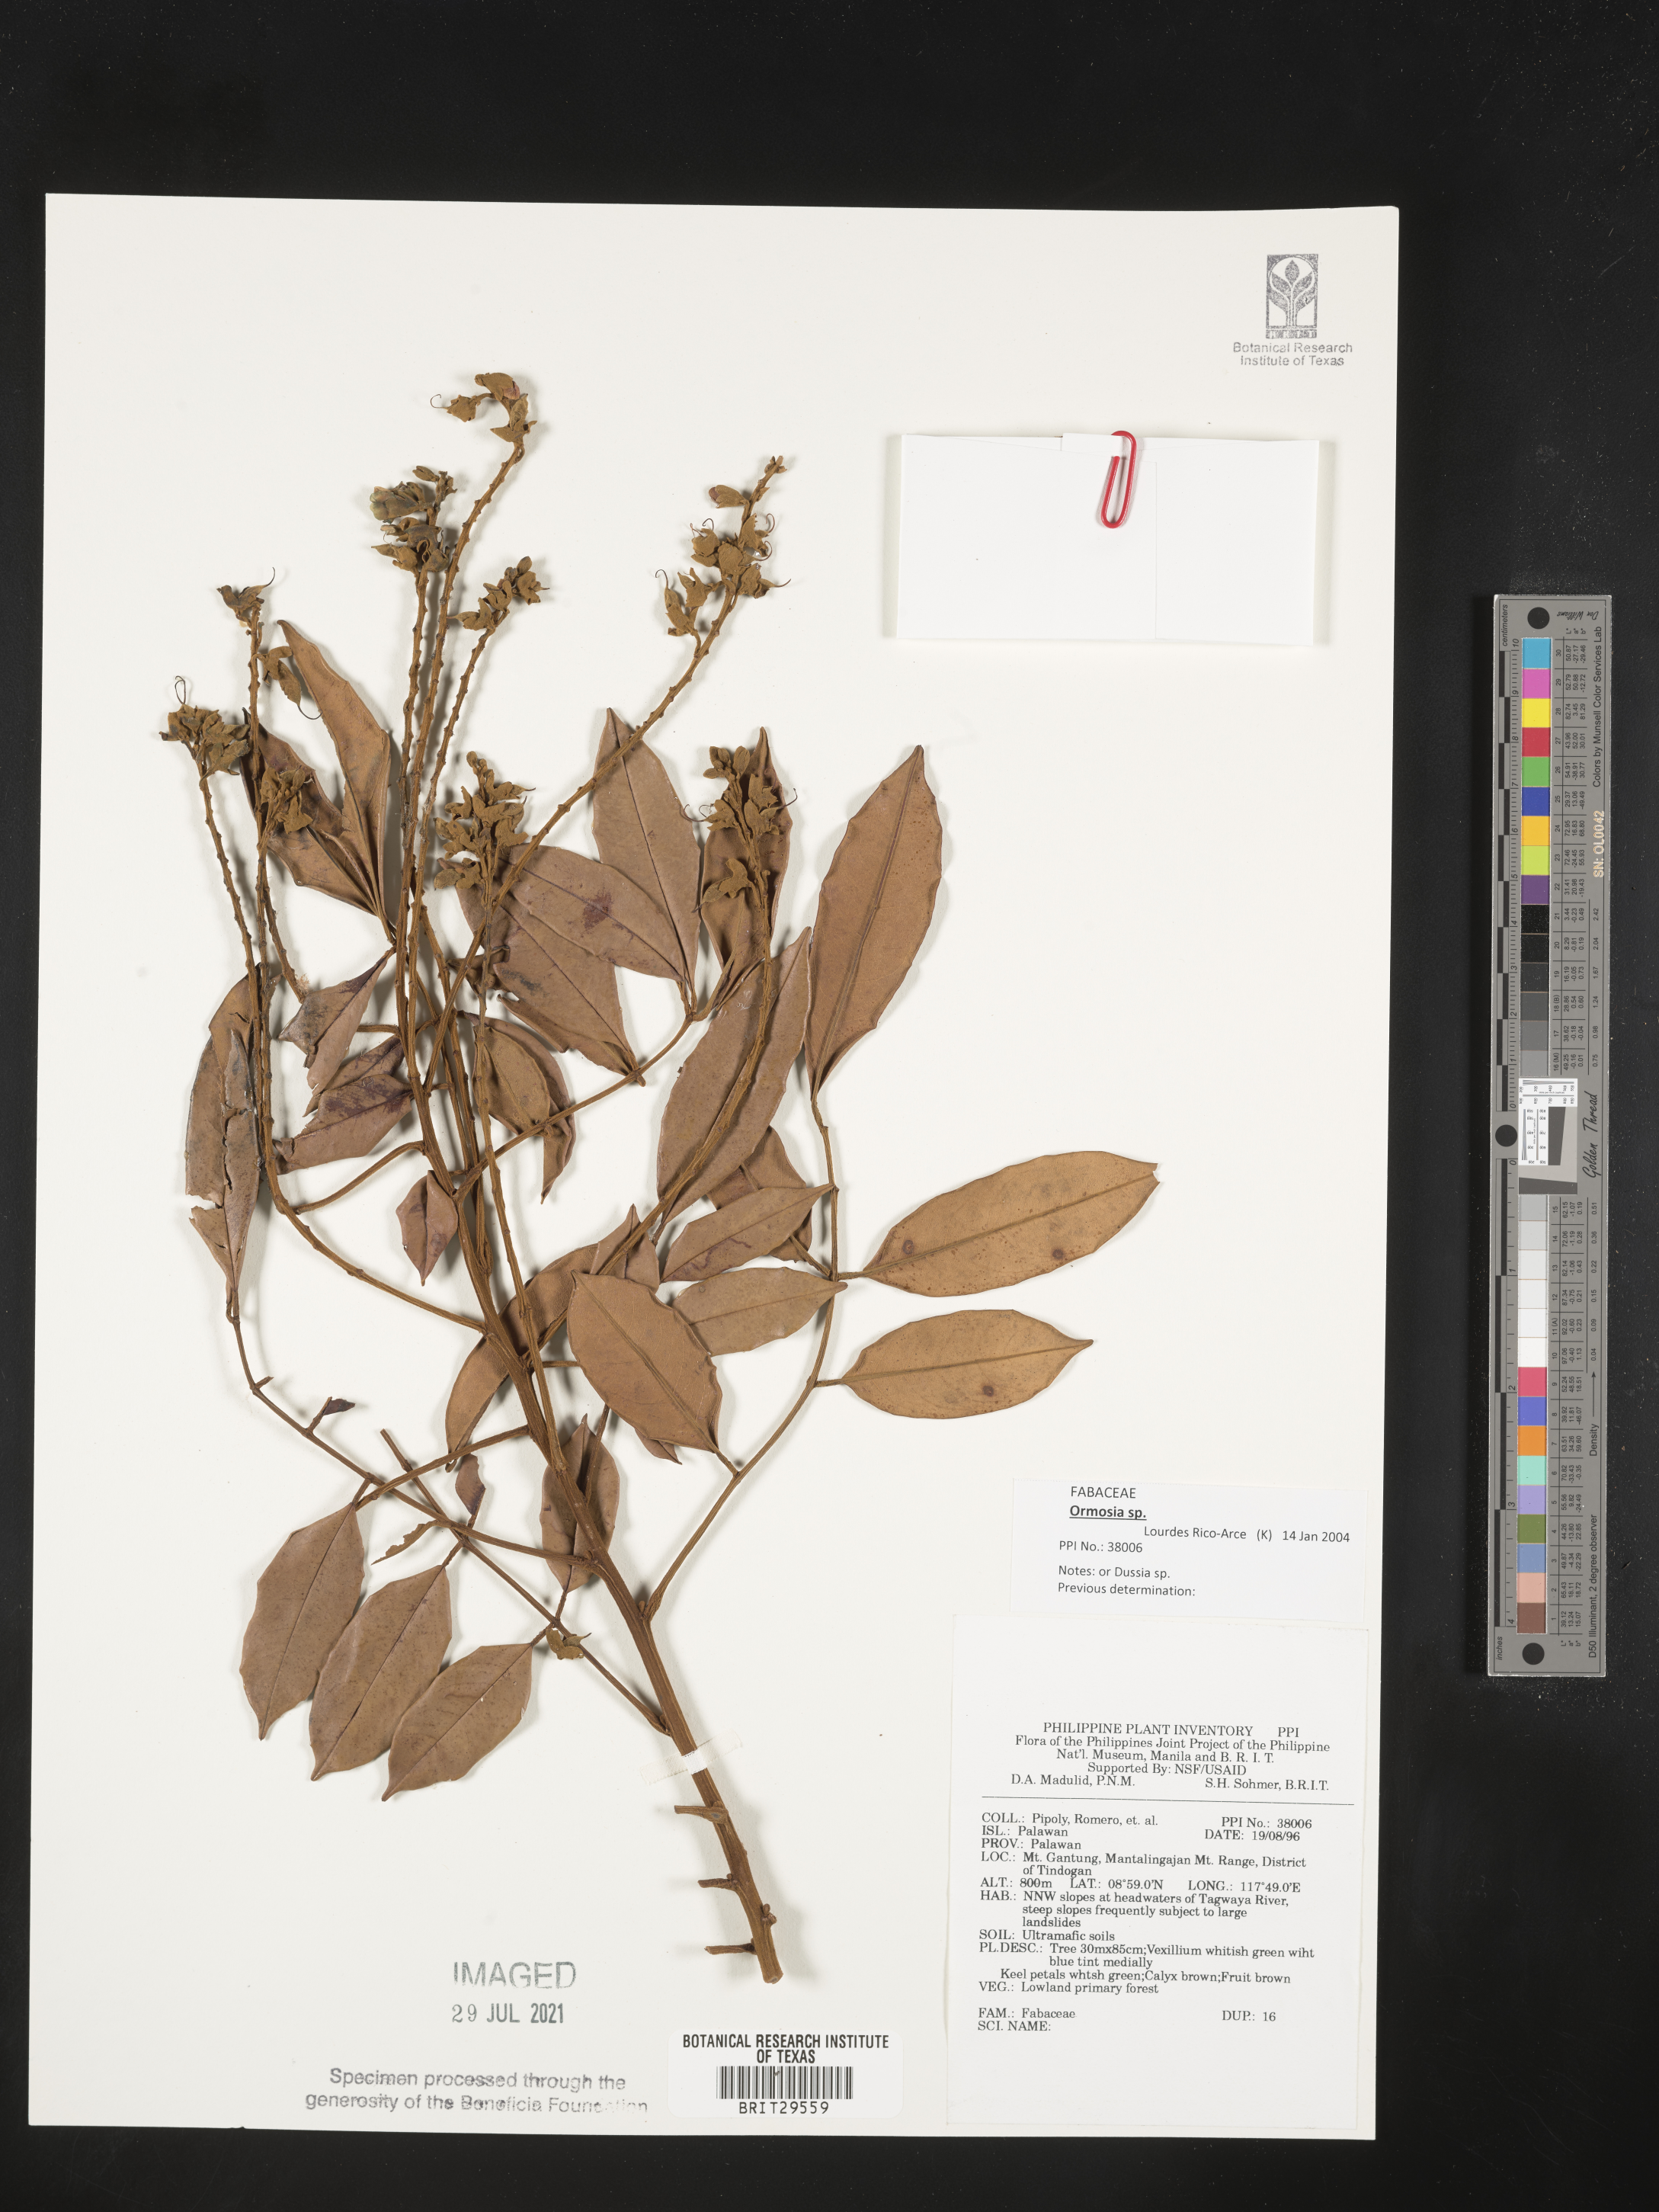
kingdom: Plantae
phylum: Tracheophyta
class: Magnoliopsida
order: Fabales
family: Fabaceae
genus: Ormosia
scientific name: Ormosia
